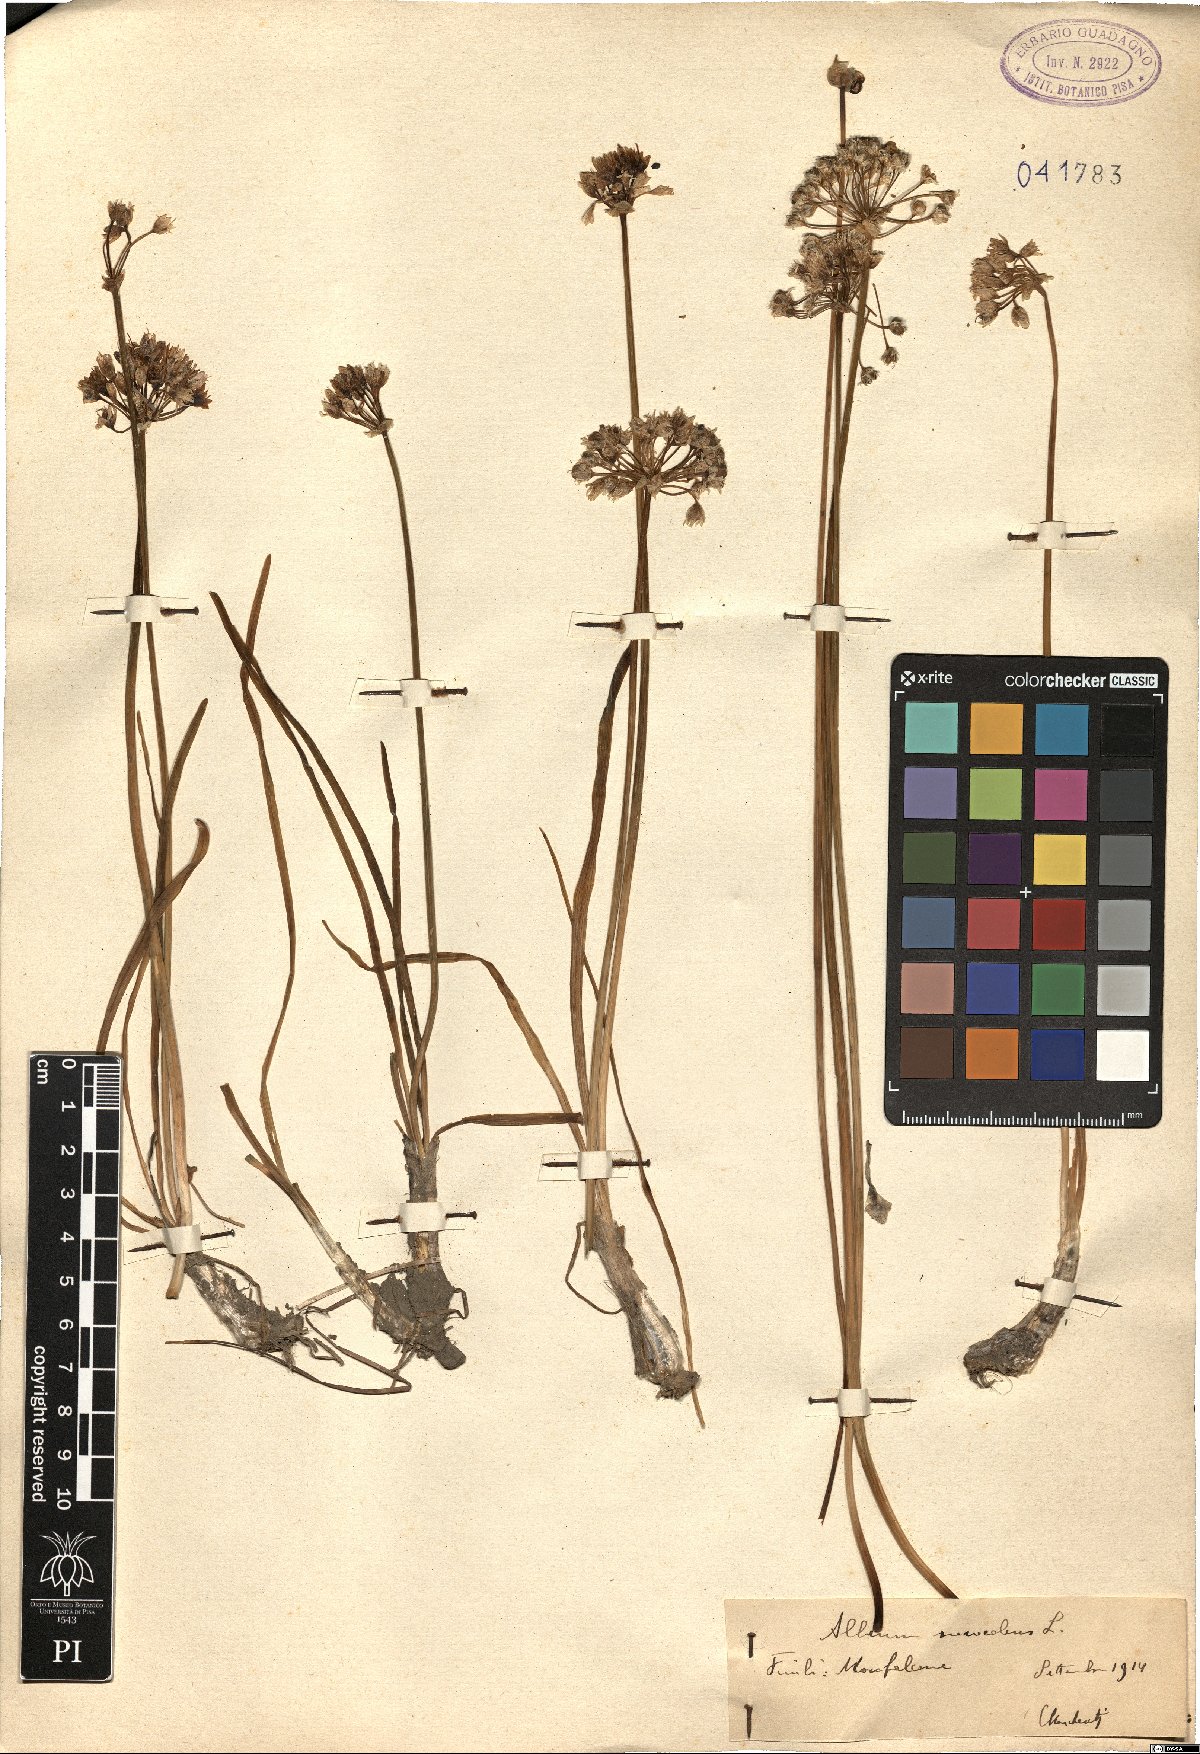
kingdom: Plantae
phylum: Tracheophyta
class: Liliopsida
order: Asparagales
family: Amaryllidaceae
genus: Allium
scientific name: Allium suaveolens
